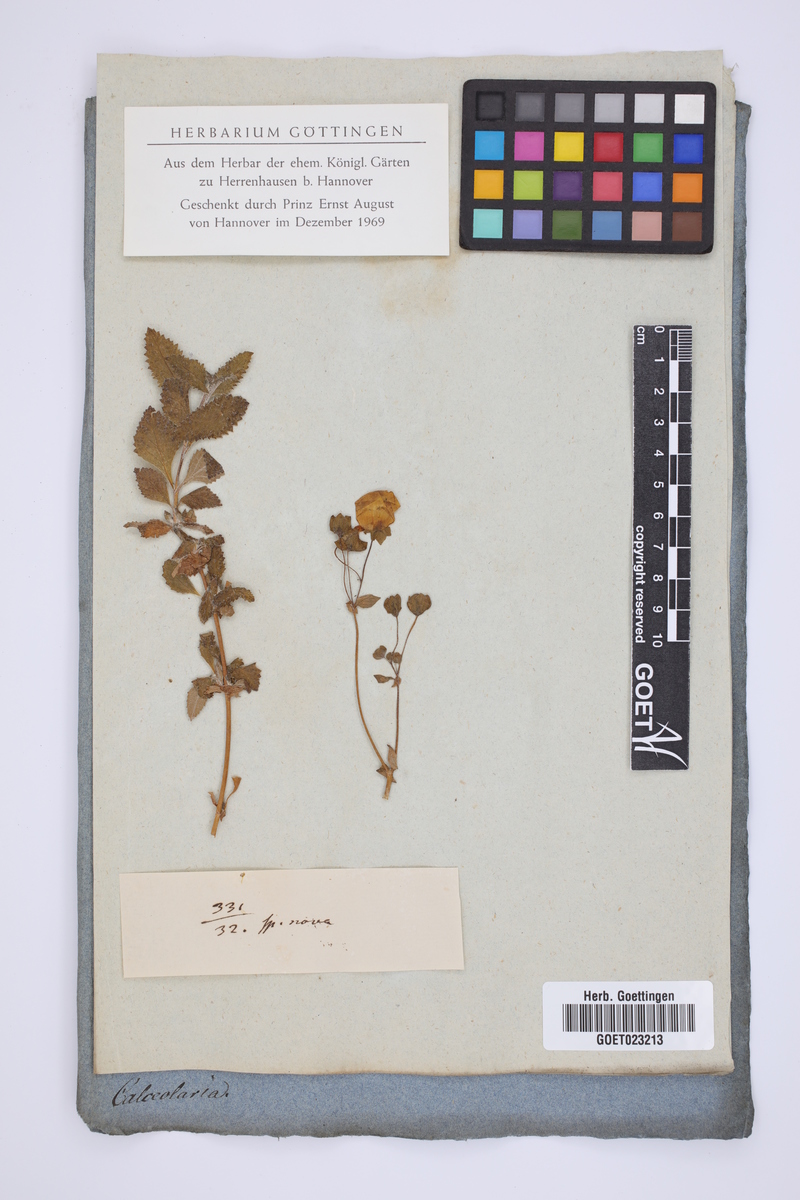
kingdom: Plantae
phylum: Tracheophyta
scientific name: Tracheophyta
